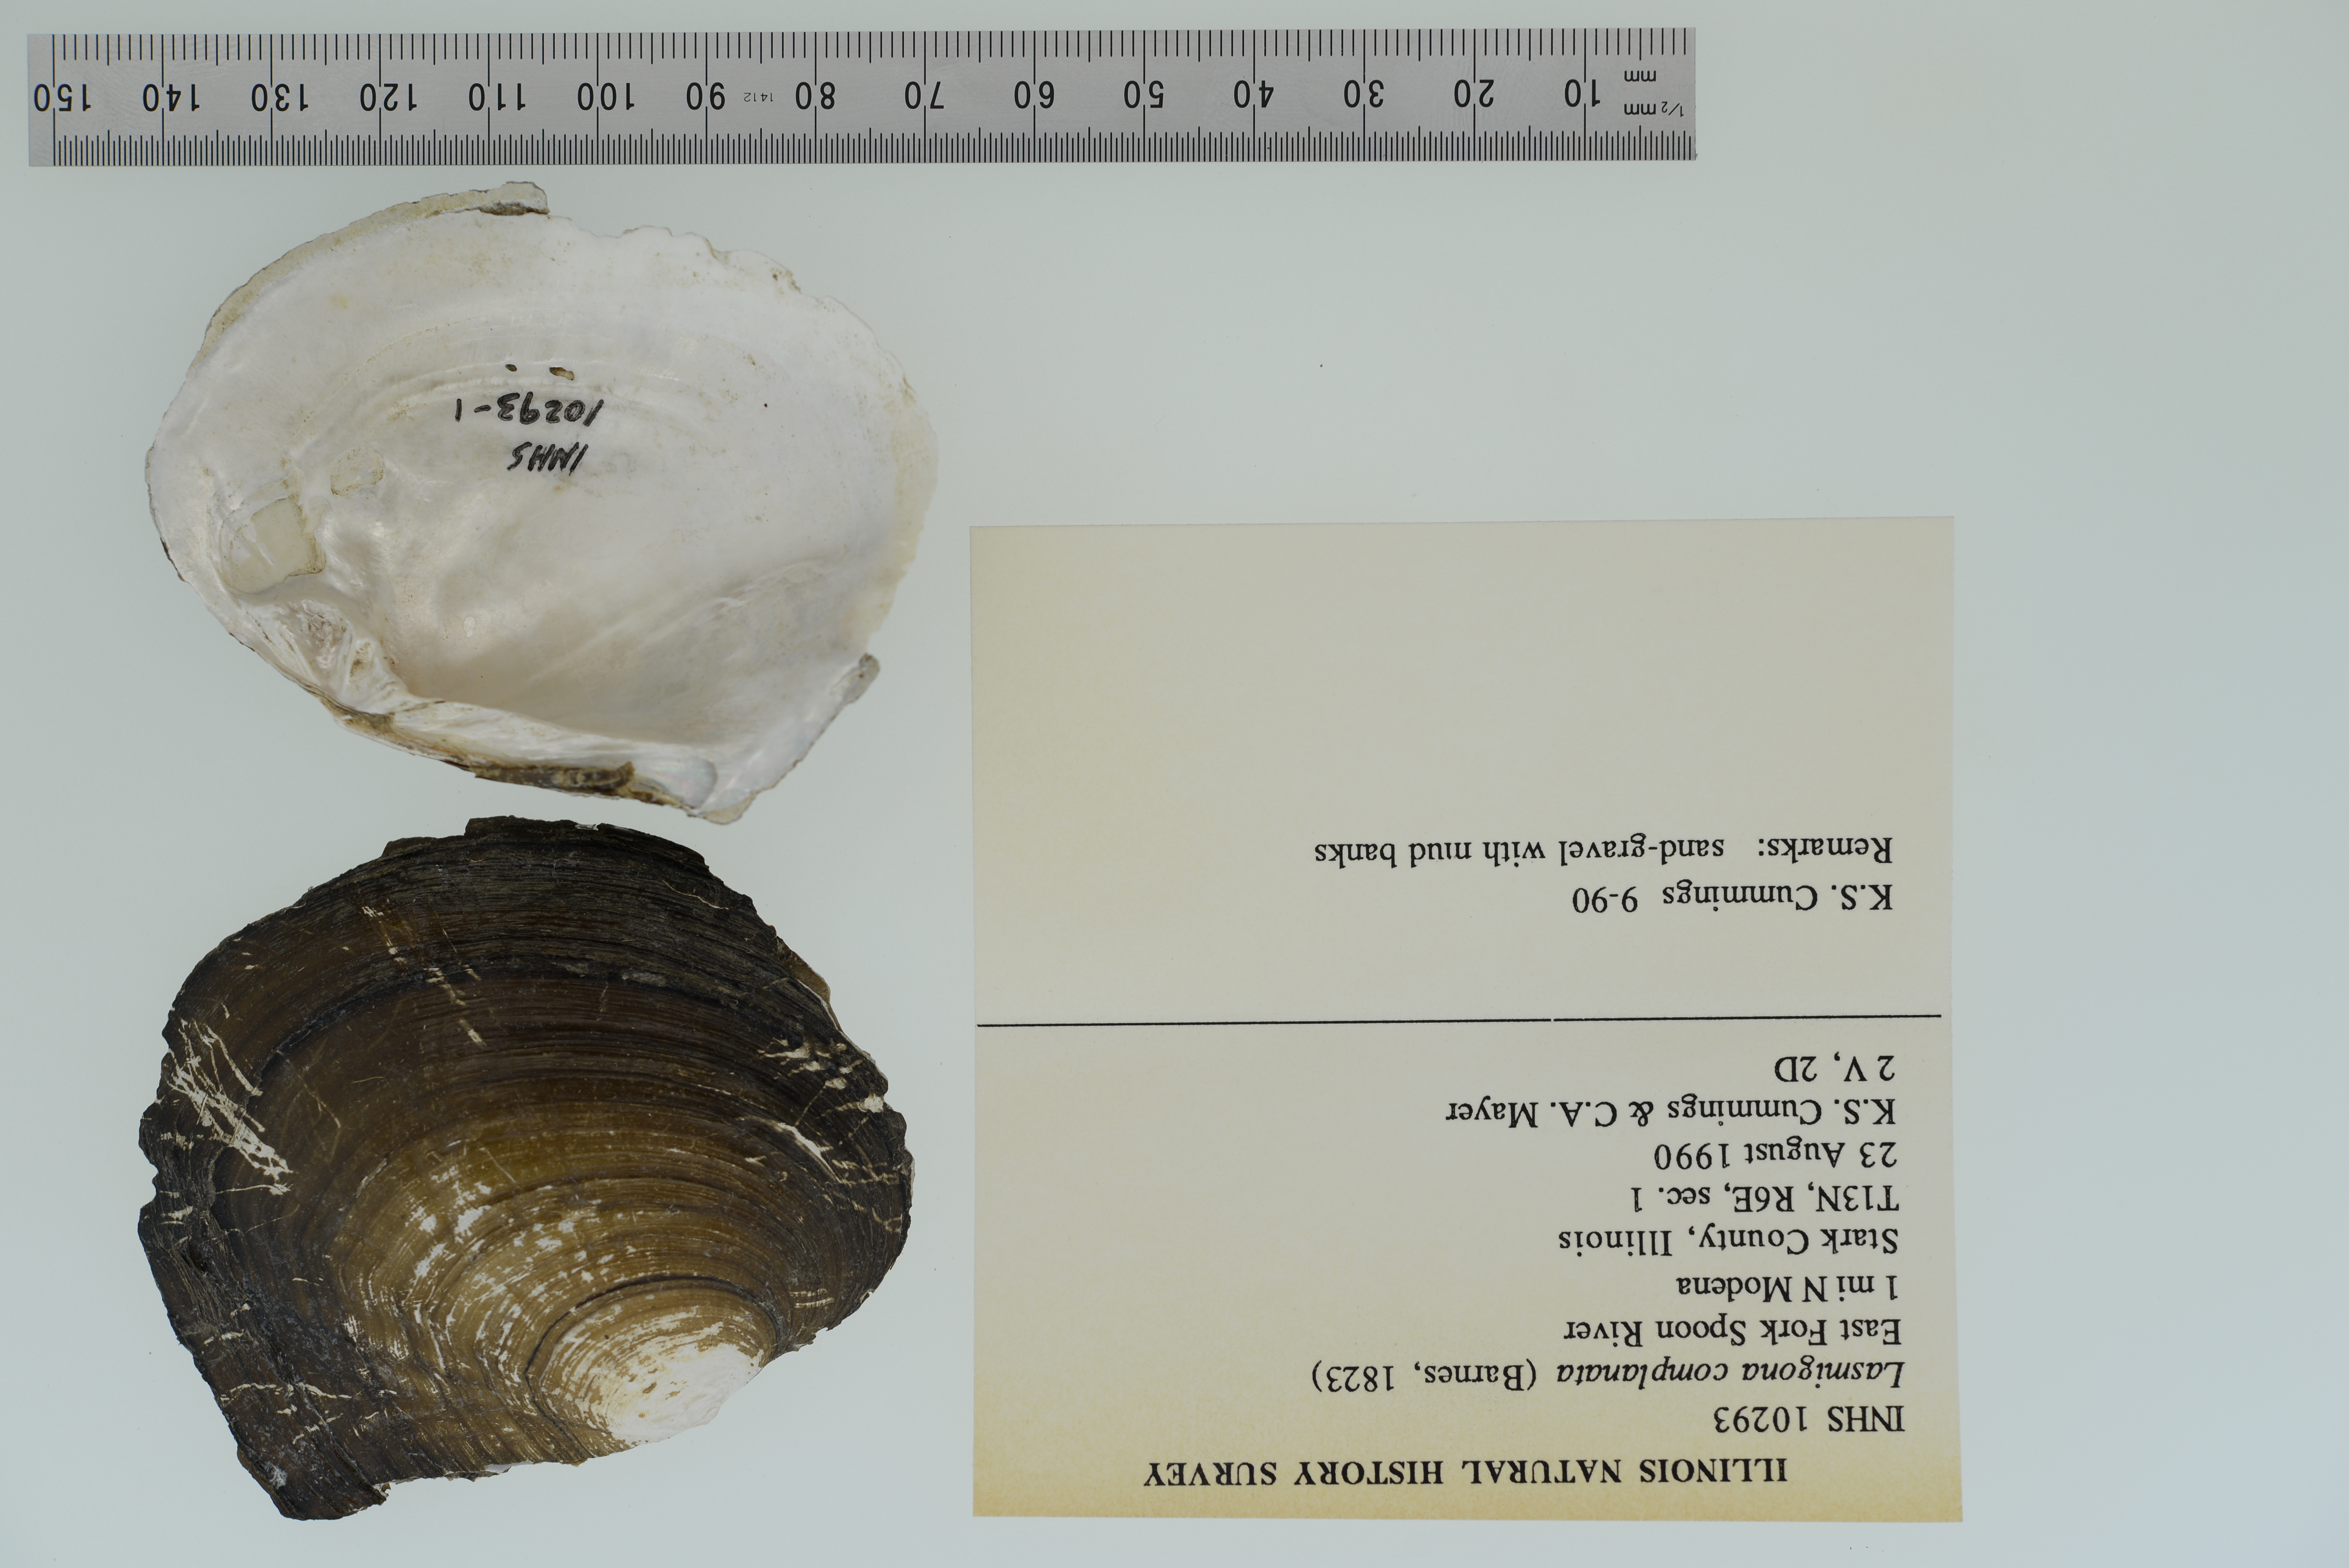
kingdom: Animalia
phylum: Mollusca
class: Bivalvia
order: Unionida
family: Unionidae
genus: Lasmigona
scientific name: Lasmigona complanata
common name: White heelsplitter
